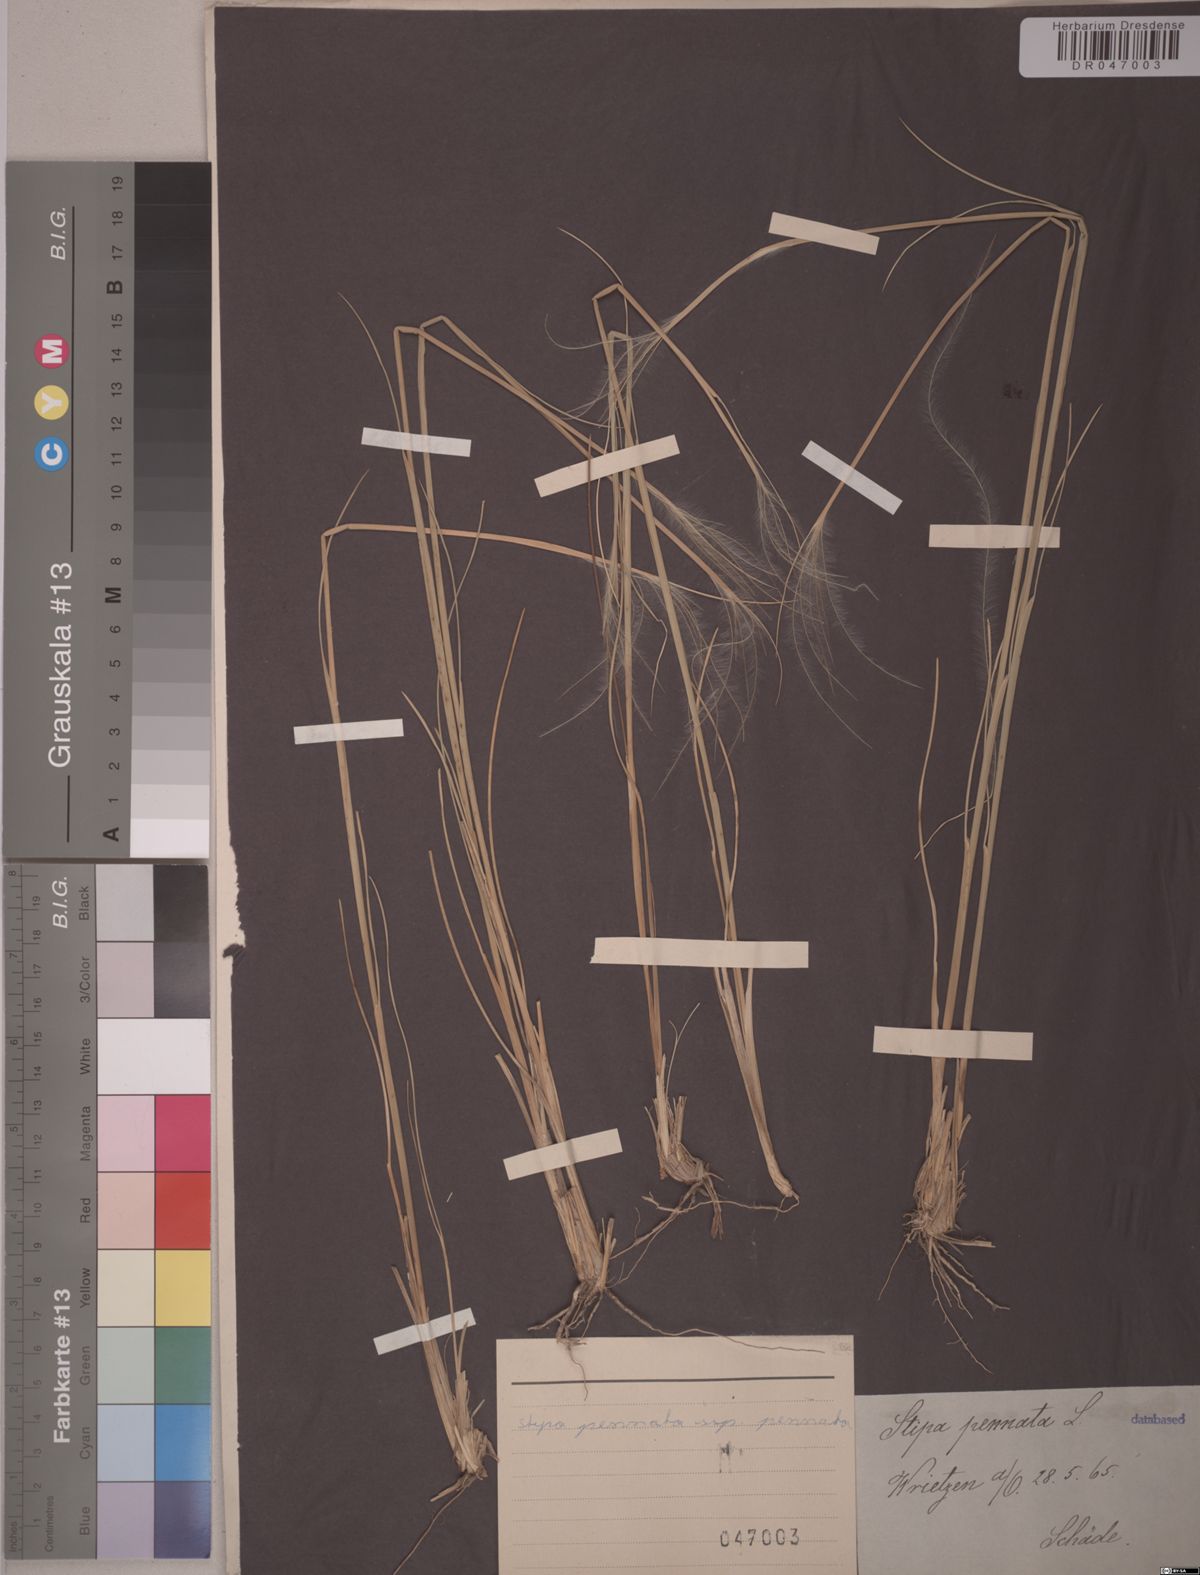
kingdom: Plantae
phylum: Tracheophyta
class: Liliopsida
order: Poales
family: Poaceae
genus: Stipa
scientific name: Stipa pennata
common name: European feather grass
